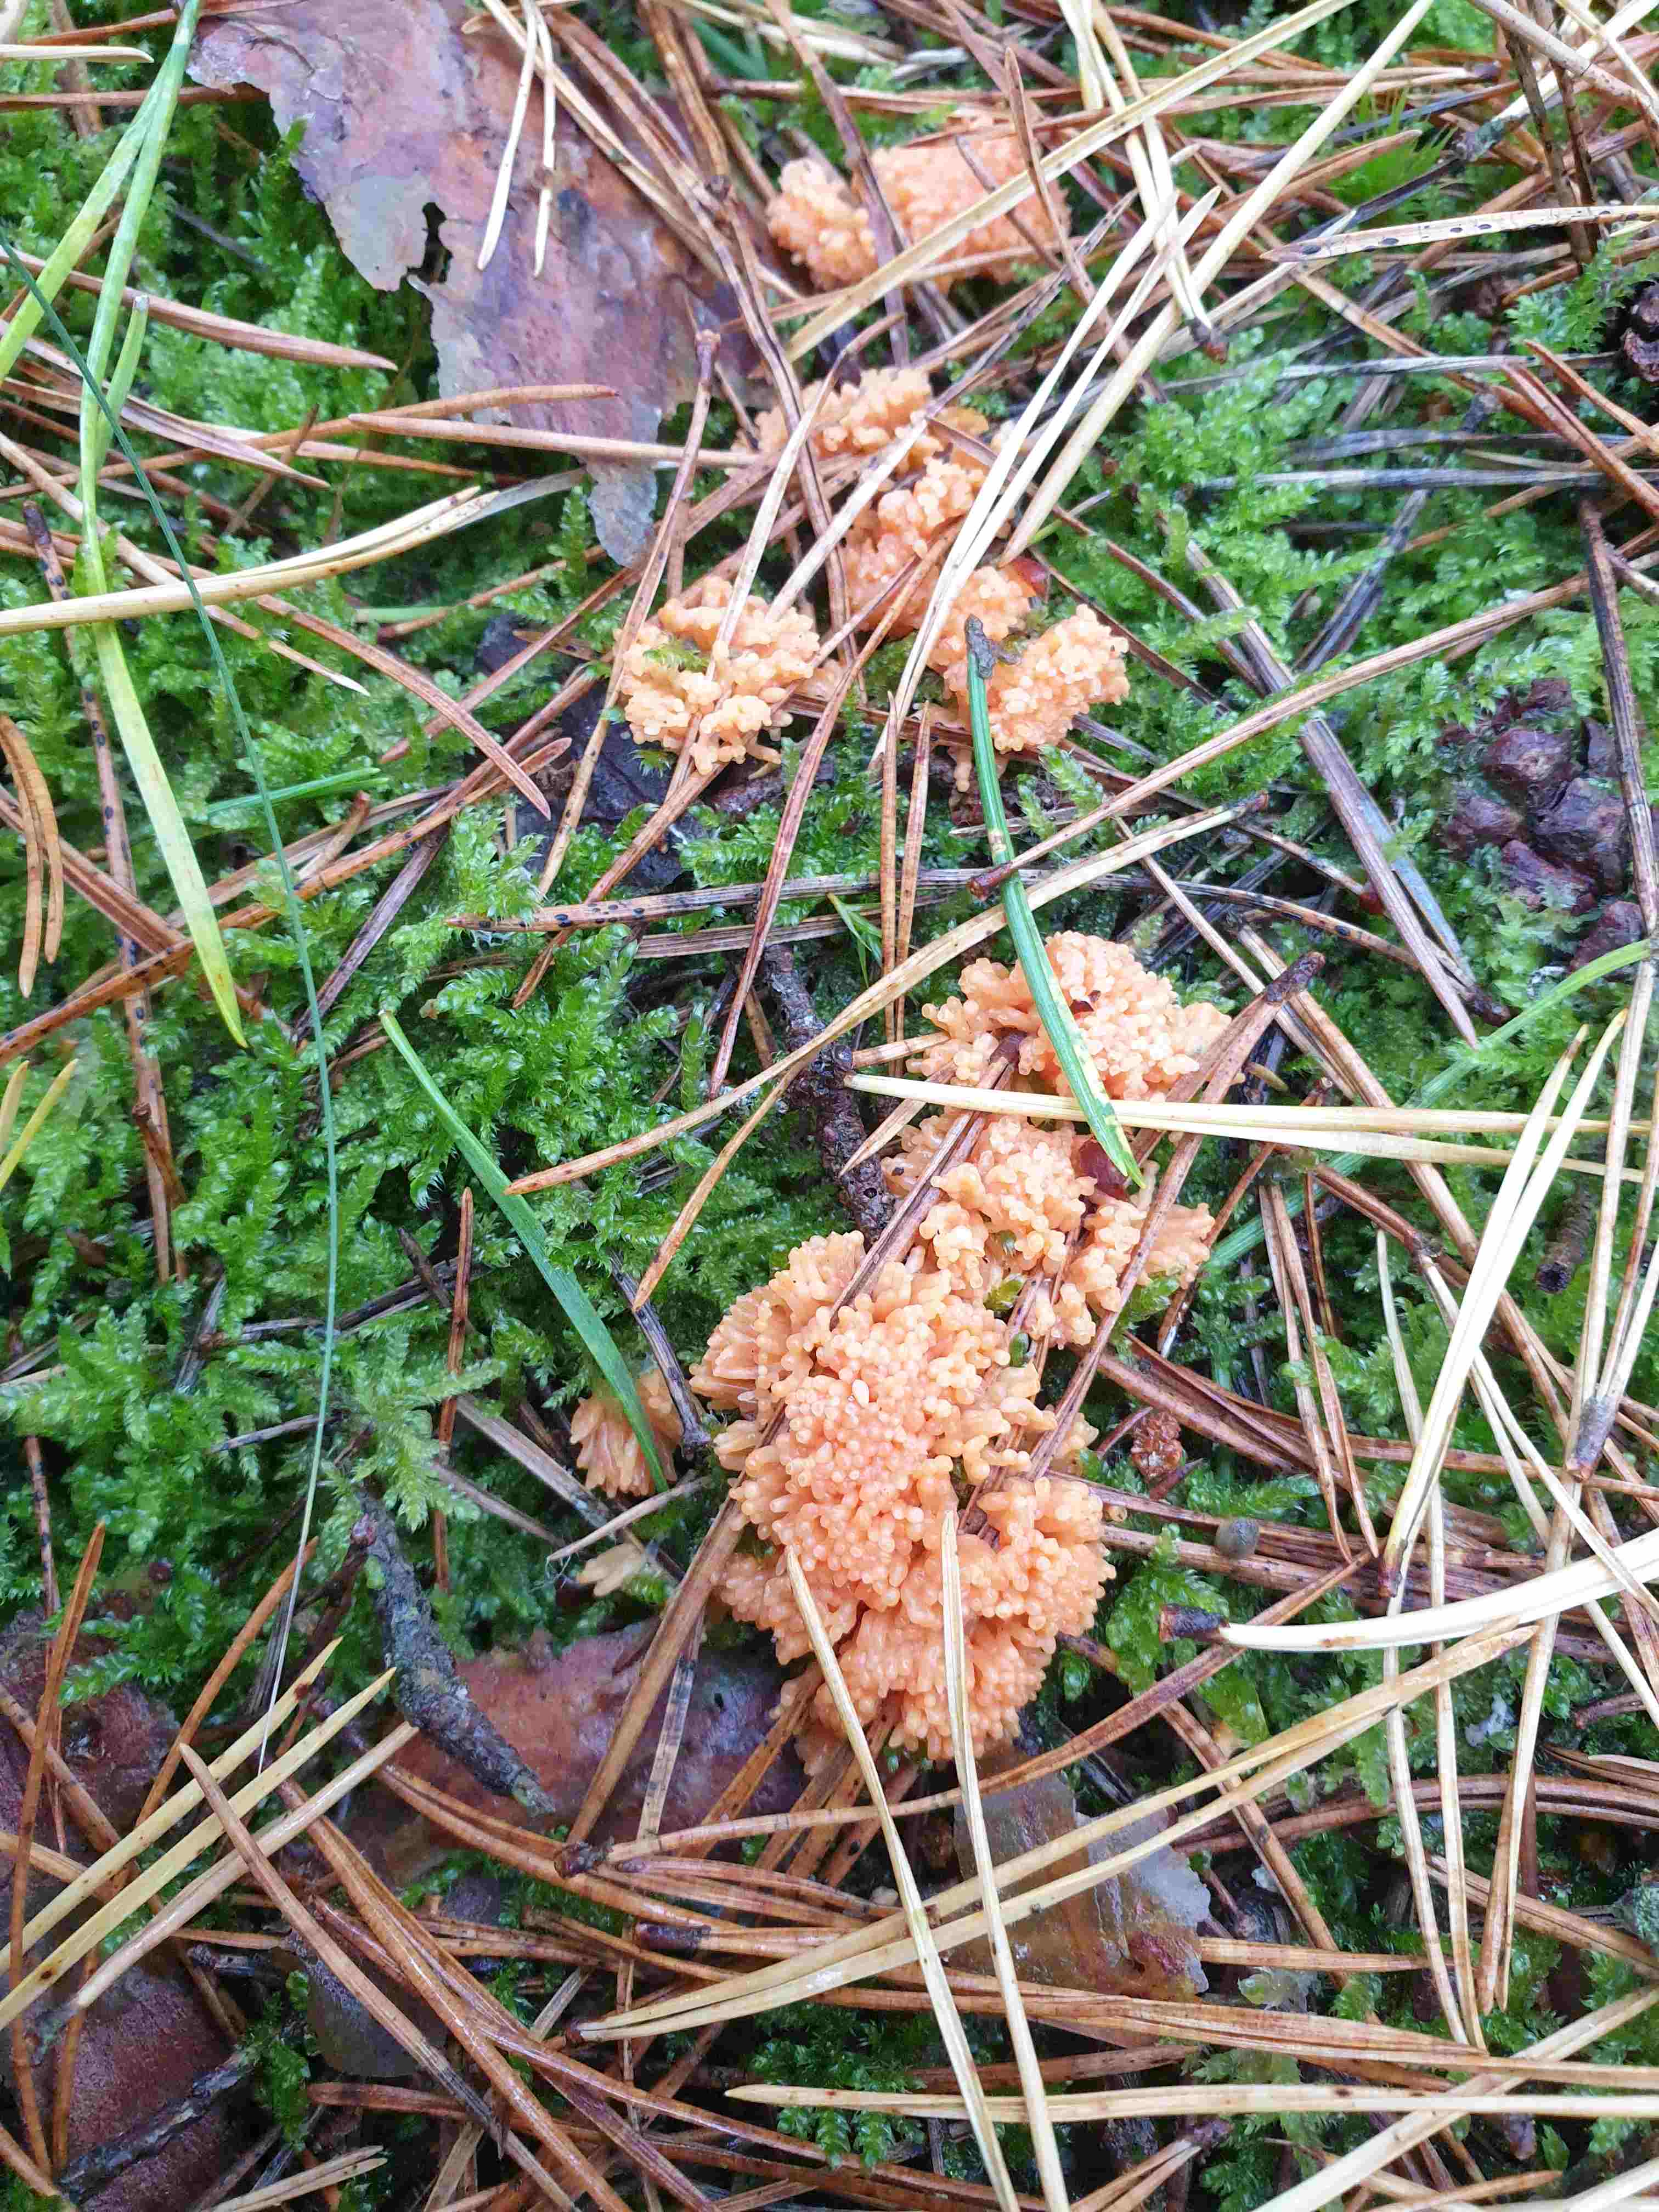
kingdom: Protozoa
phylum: Mycetozoa
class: Myxomycetes
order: Cribrariales
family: Tubiferaceae
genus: Tubifera
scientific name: Tubifera
